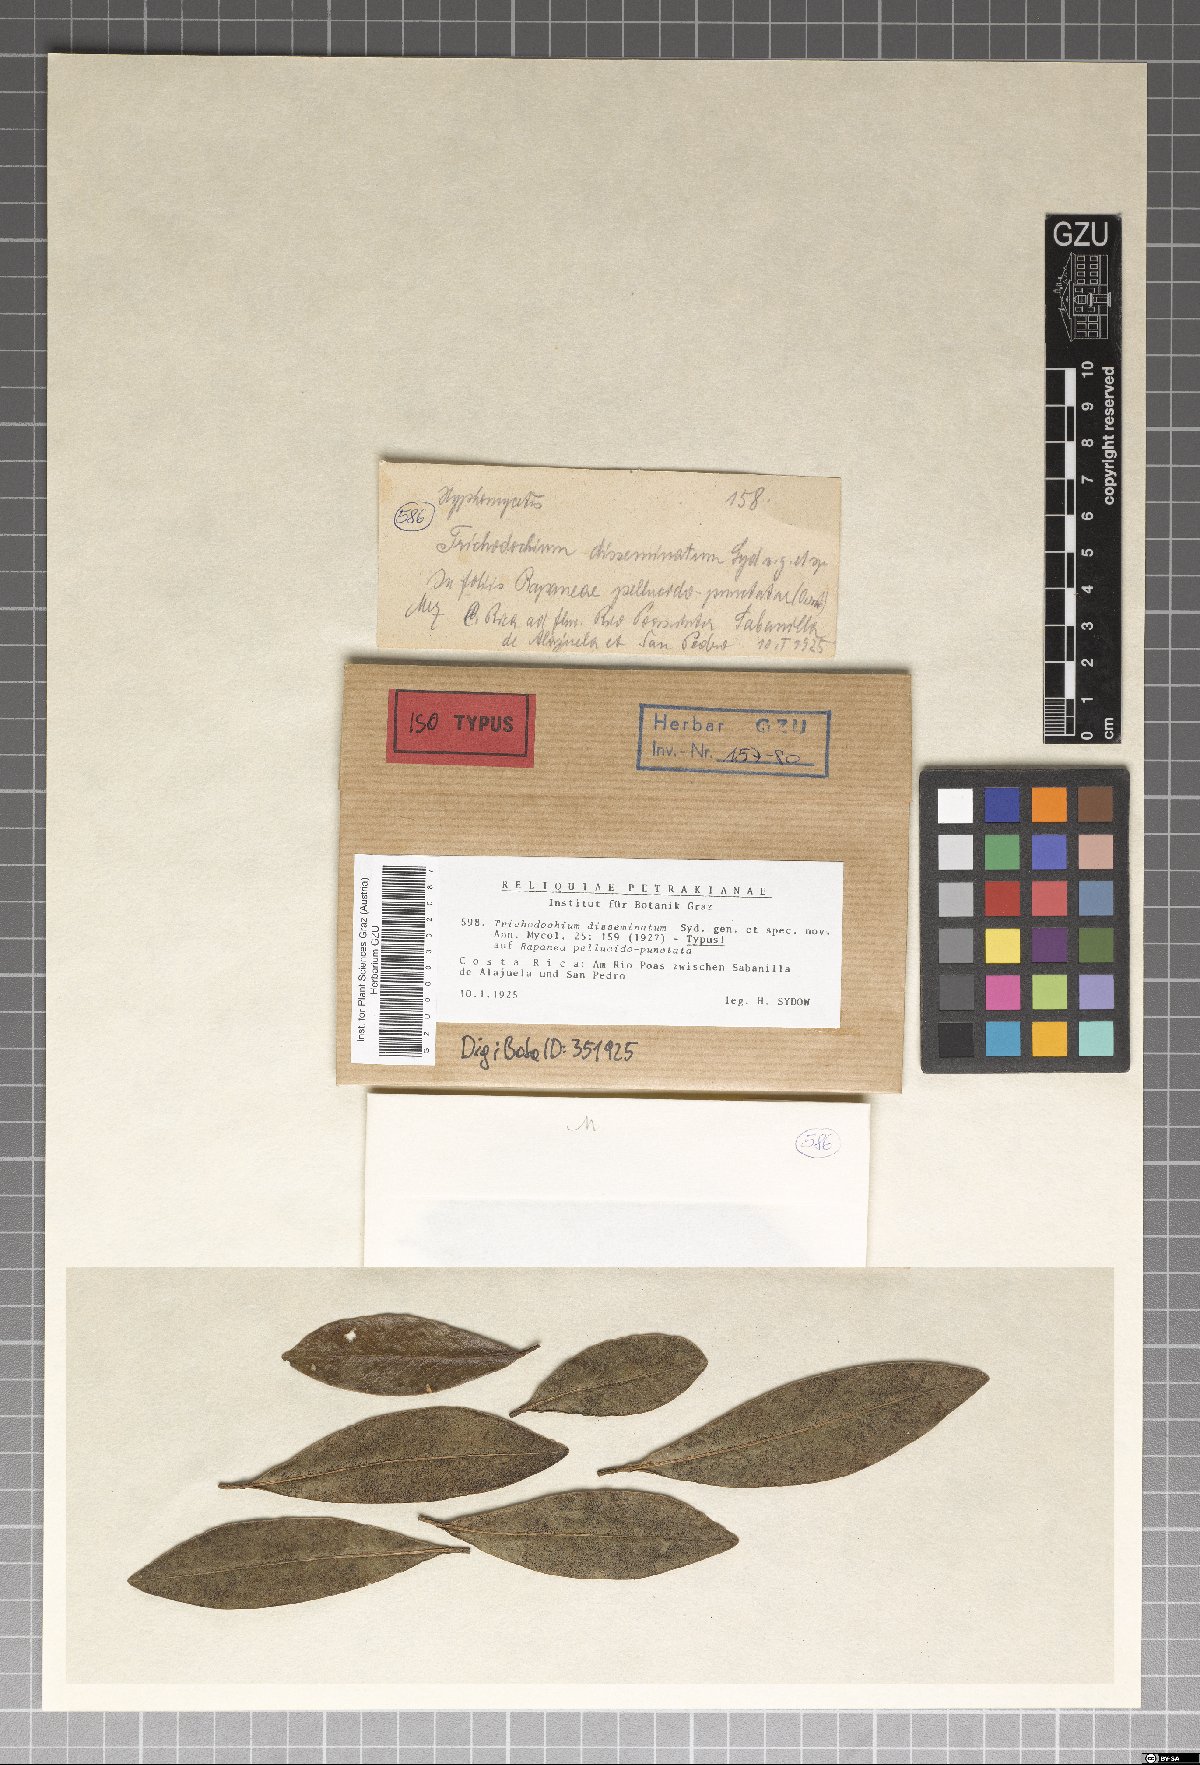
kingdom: Fungi
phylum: Ascomycota
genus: Trichodochium
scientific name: Trichodochium disseminatum
